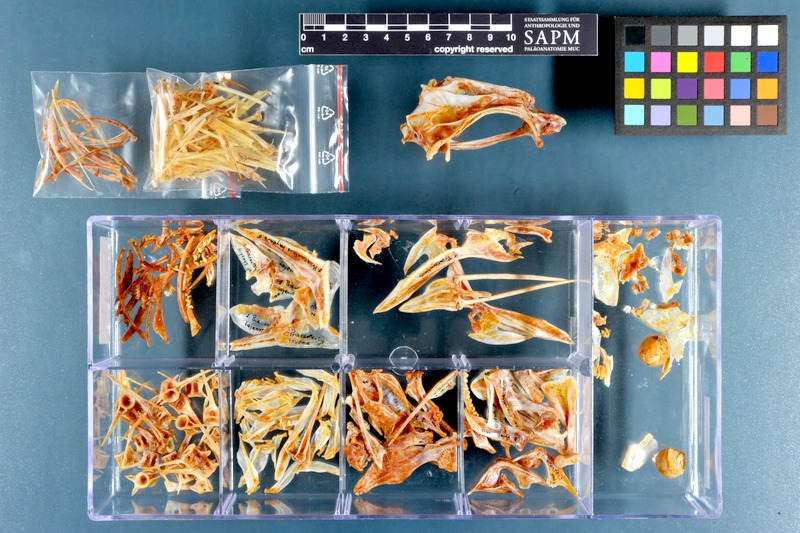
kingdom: Animalia
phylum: Chordata
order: Perciformes
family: Priacanthidae
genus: Priacanthus
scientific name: Priacanthus tayenus
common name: Purple-spotted bigeye
